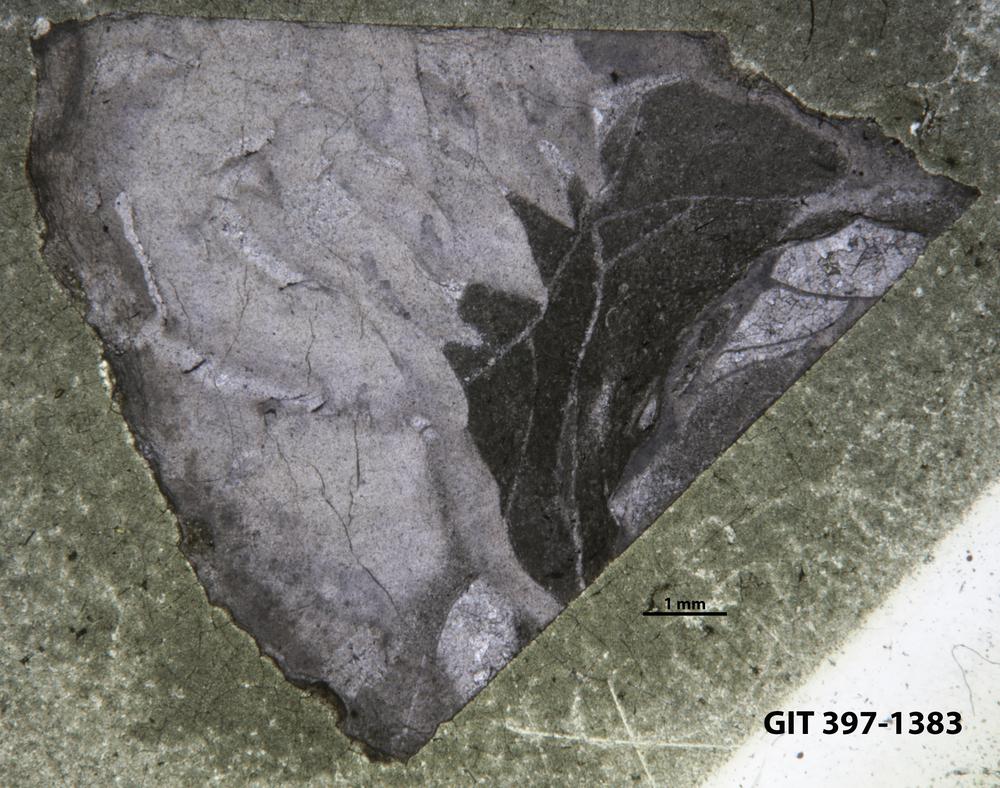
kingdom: Animalia
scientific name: Animalia
